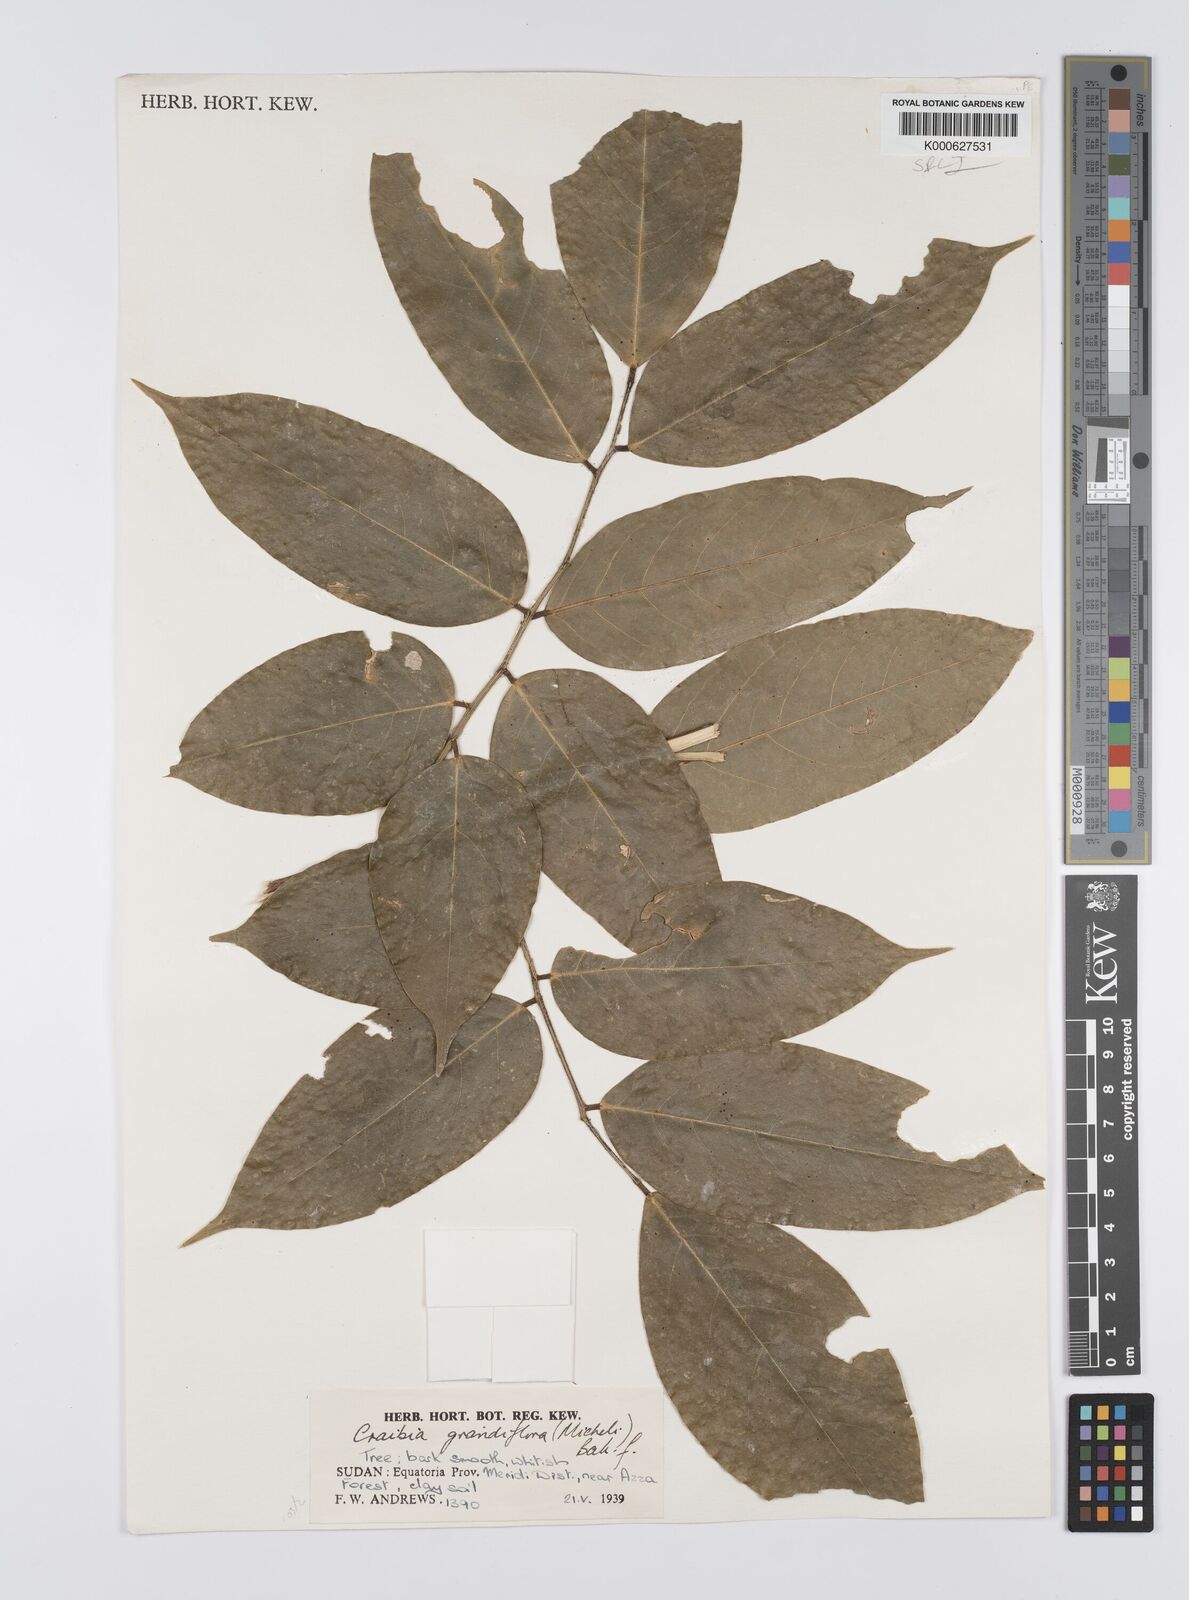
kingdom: Plantae
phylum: Tracheophyta
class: Magnoliopsida
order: Fabales
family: Fabaceae
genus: Craibia
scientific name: Craibia grandiflora
